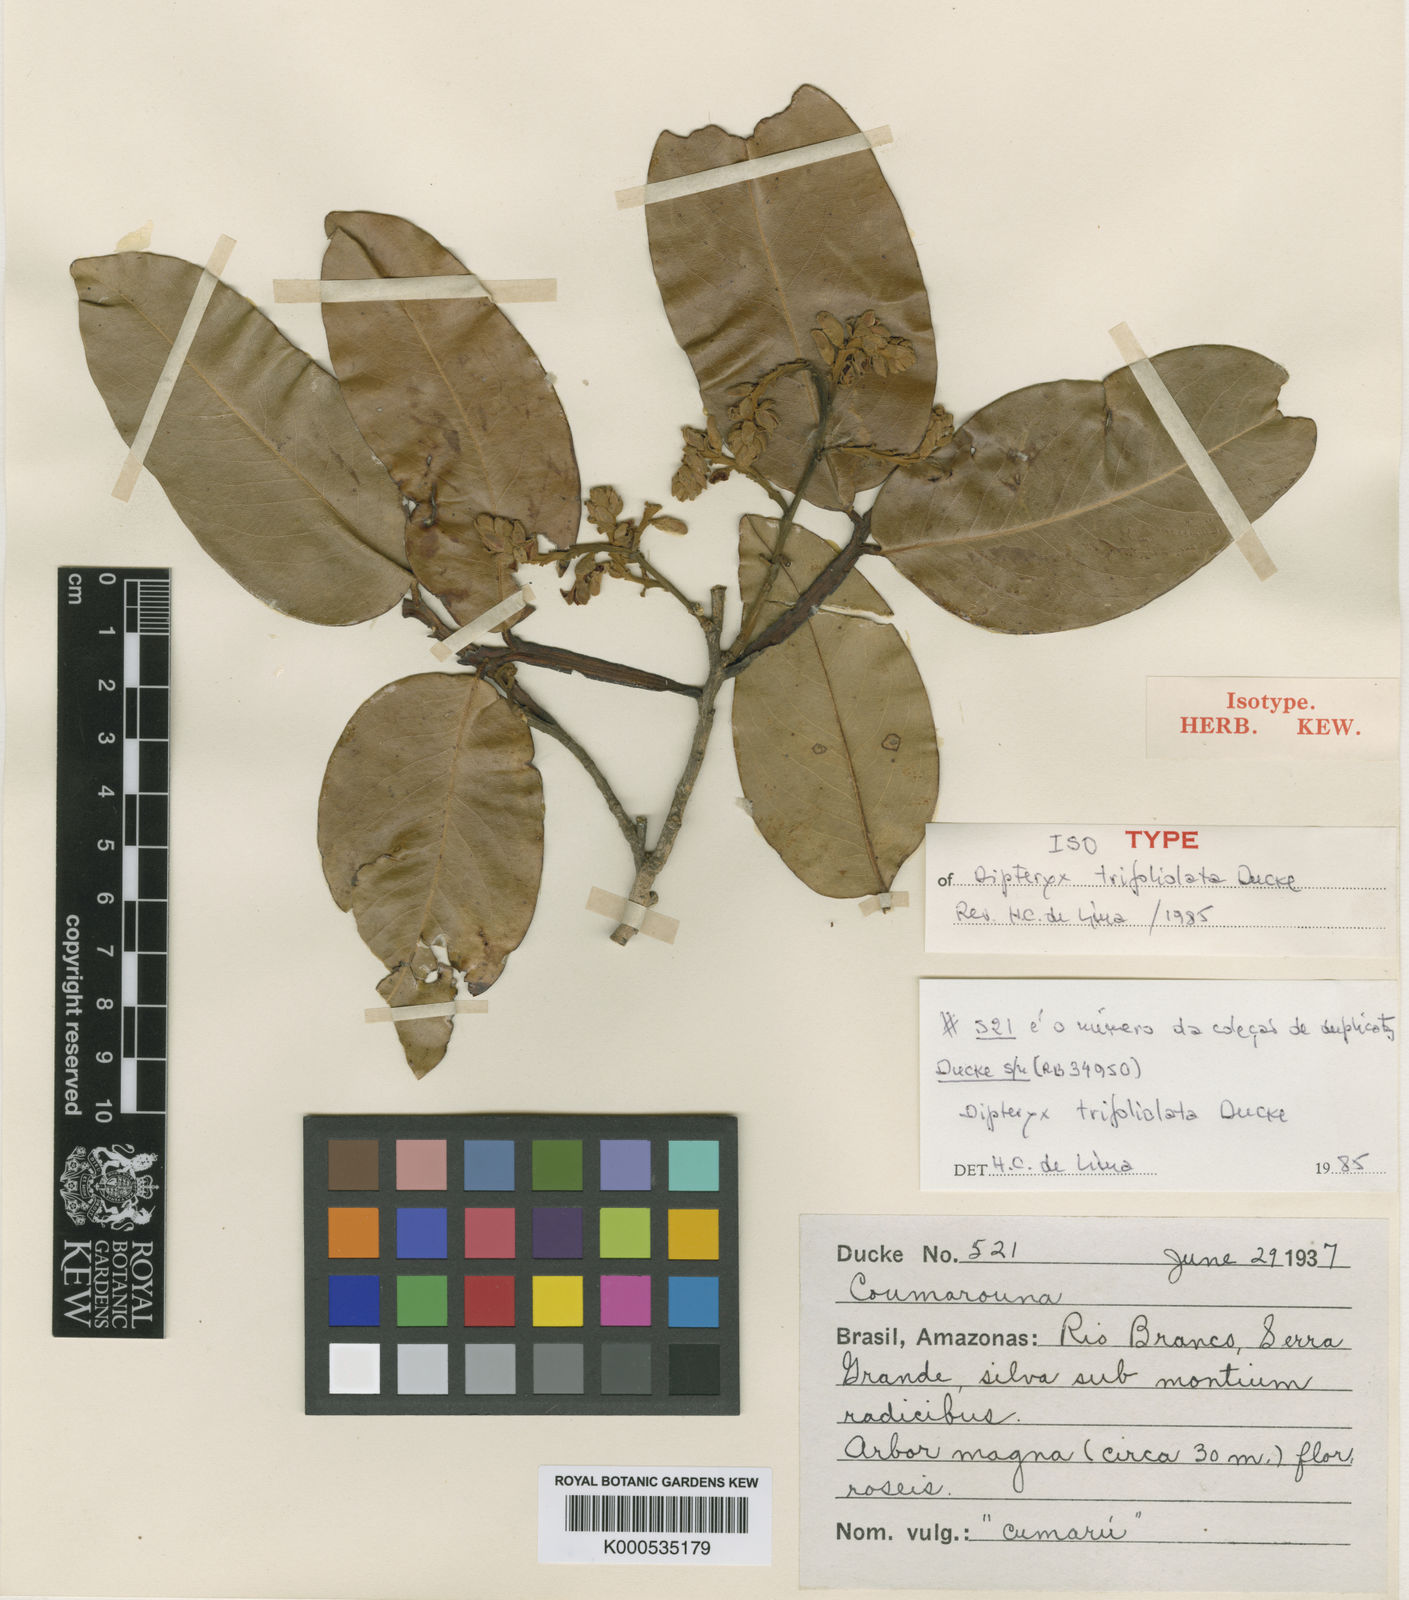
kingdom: Plantae
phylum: Tracheophyta
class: Magnoliopsida
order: Fabales
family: Fabaceae
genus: Dipteryx
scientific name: Dipteryx punctata
